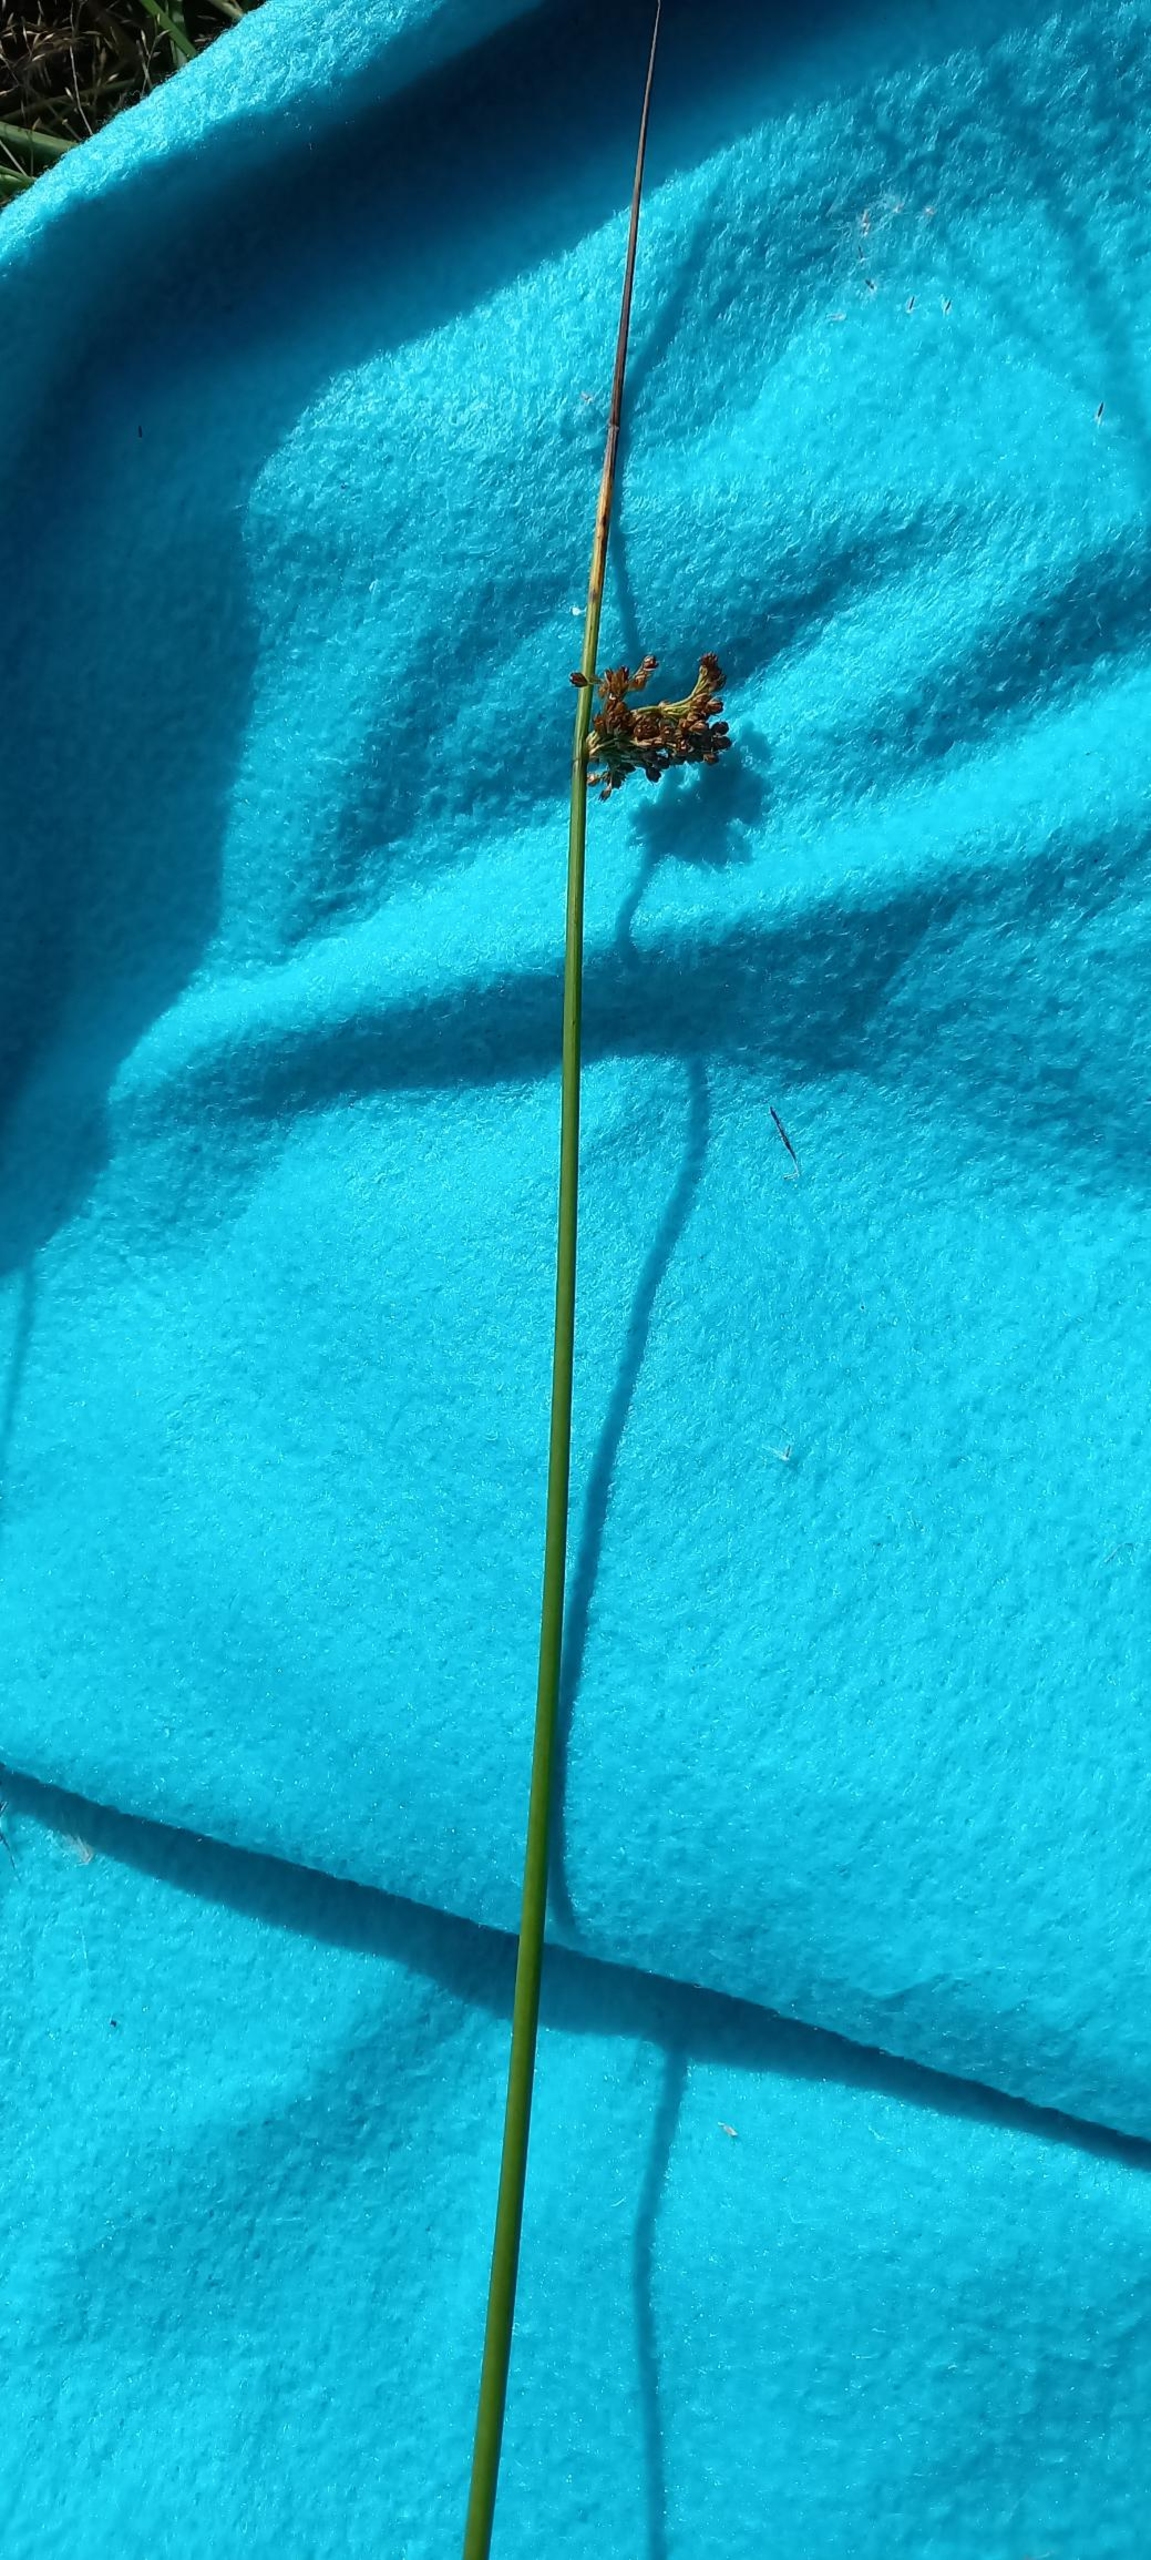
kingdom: Plantae
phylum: Tracheophyta
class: Liliopsida
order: Poales
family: Juncaceae
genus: Juncus
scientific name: Juncus effusus
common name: Lyse-siv
